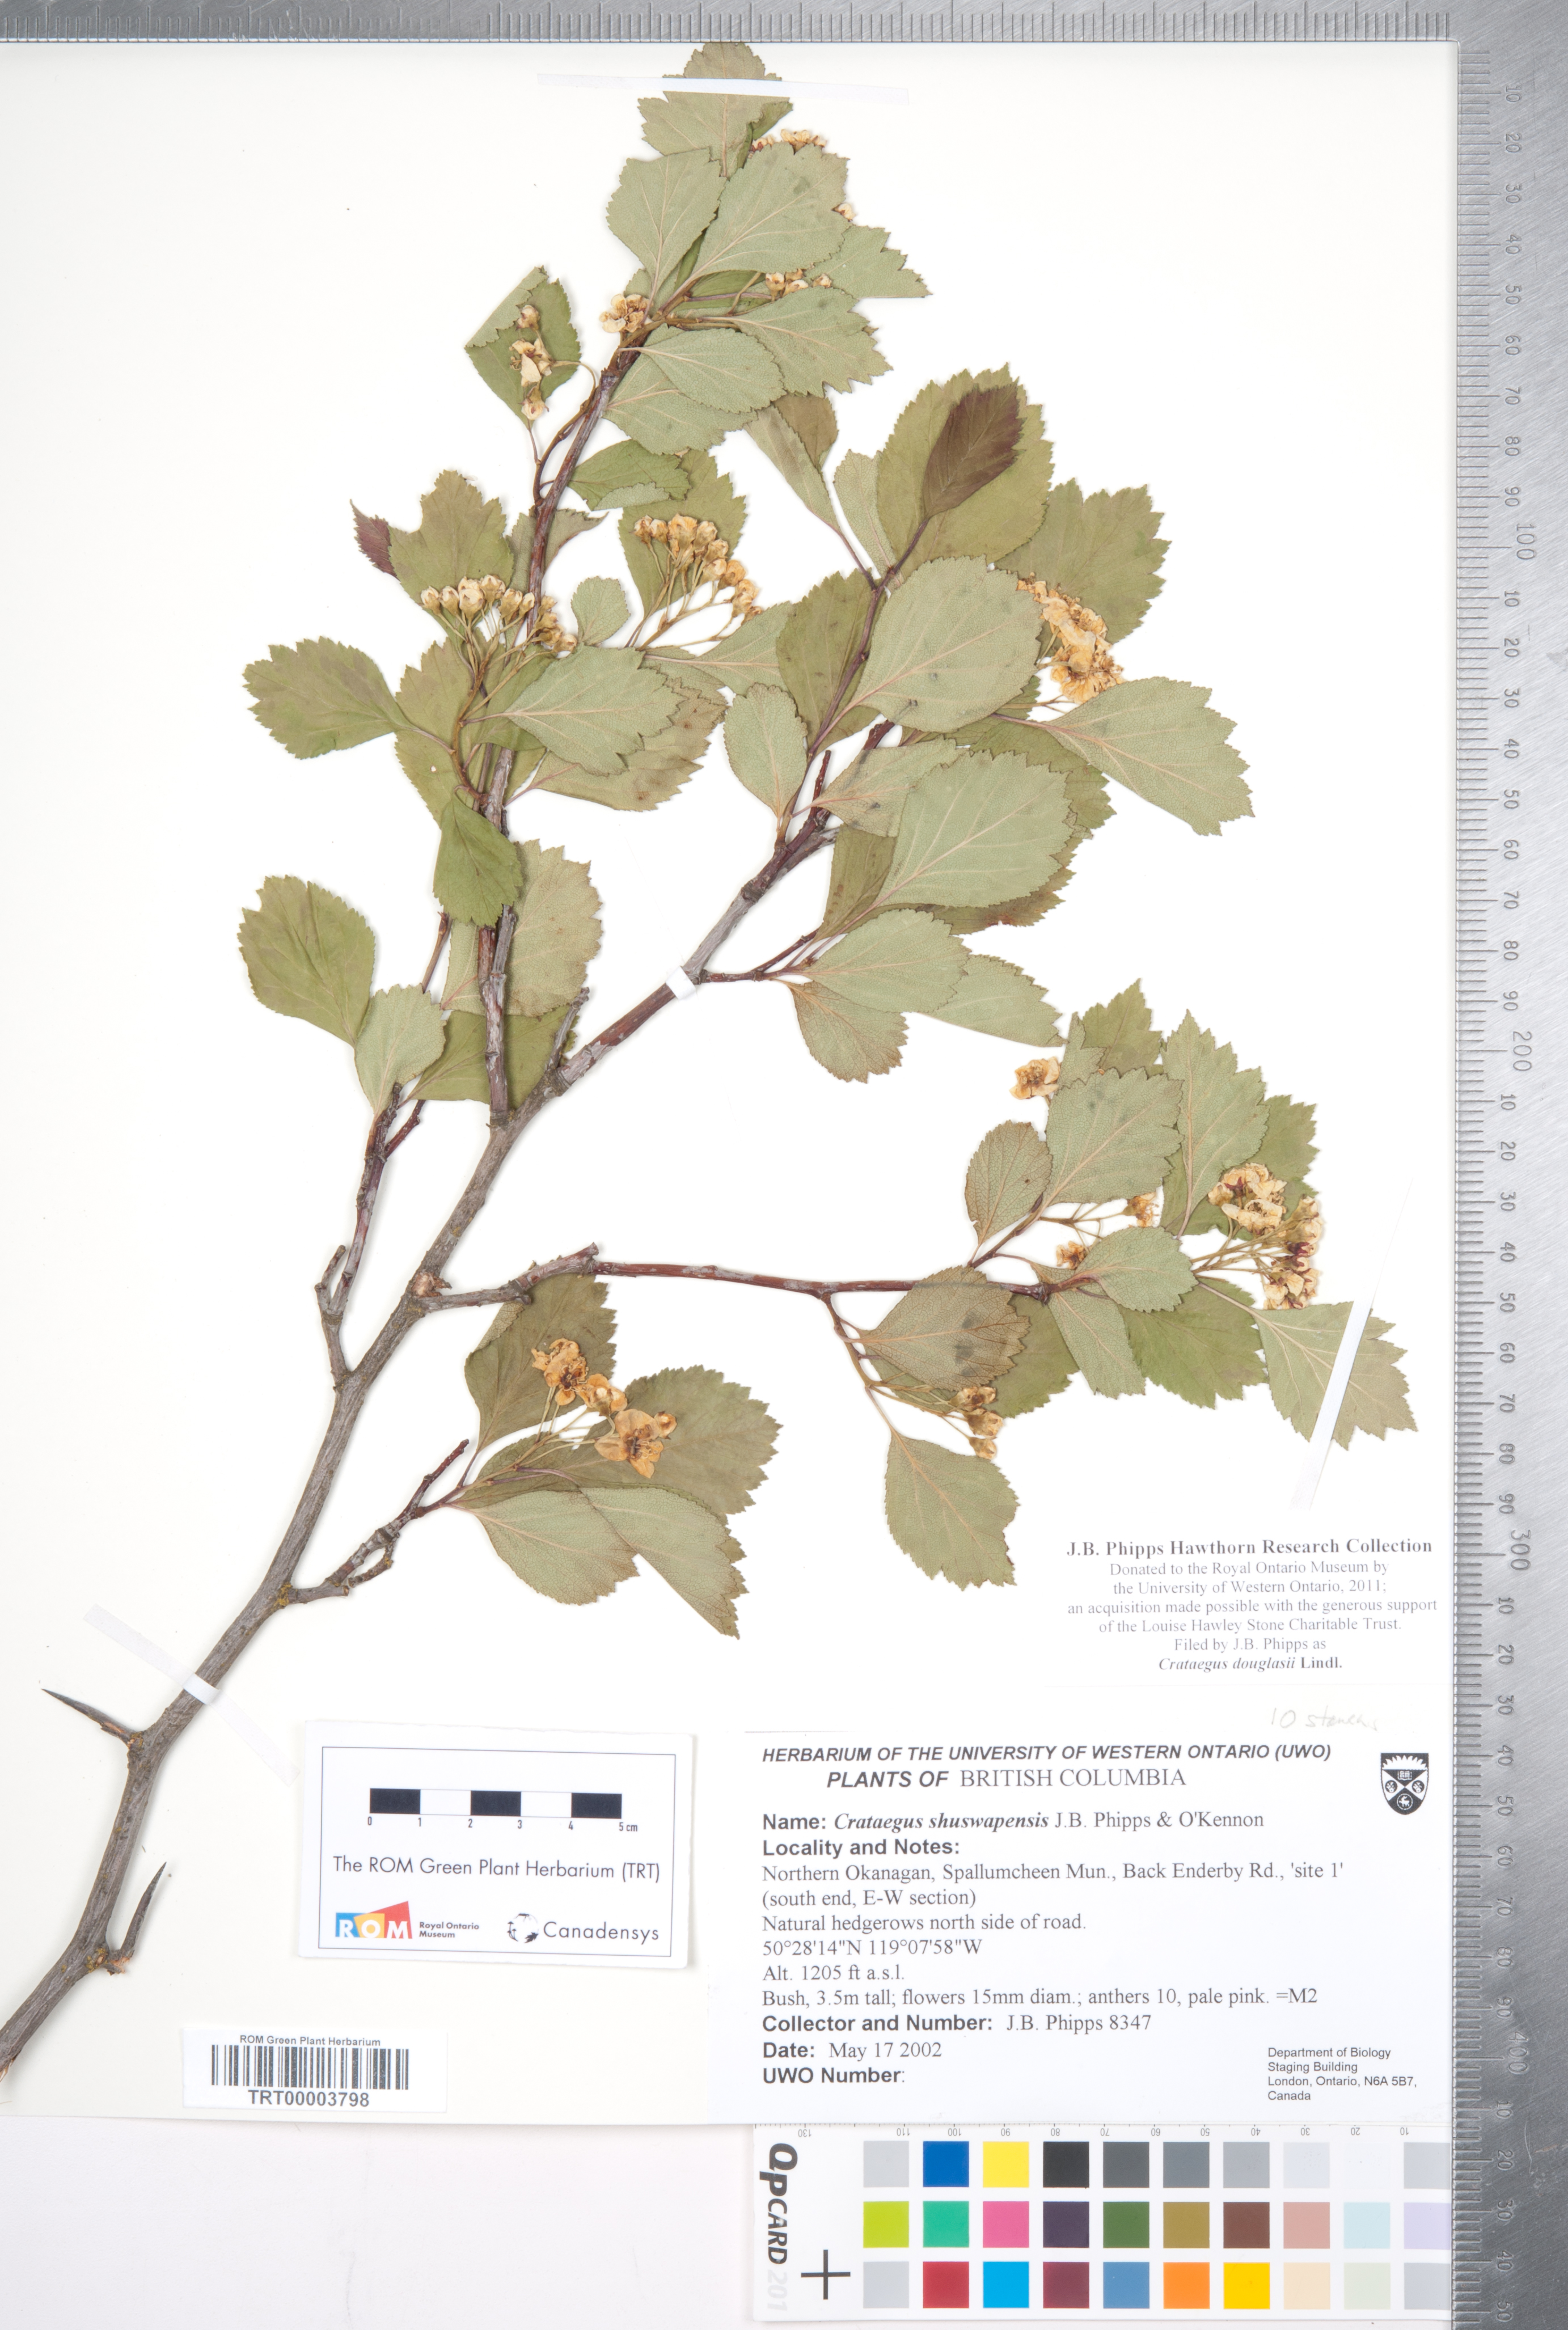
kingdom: Plantae
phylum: Tracheophyta
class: Magnoliopsida
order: Rosales
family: Rosaceae
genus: Crataegus
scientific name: Crataegus douglasii
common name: Black hawthorn
